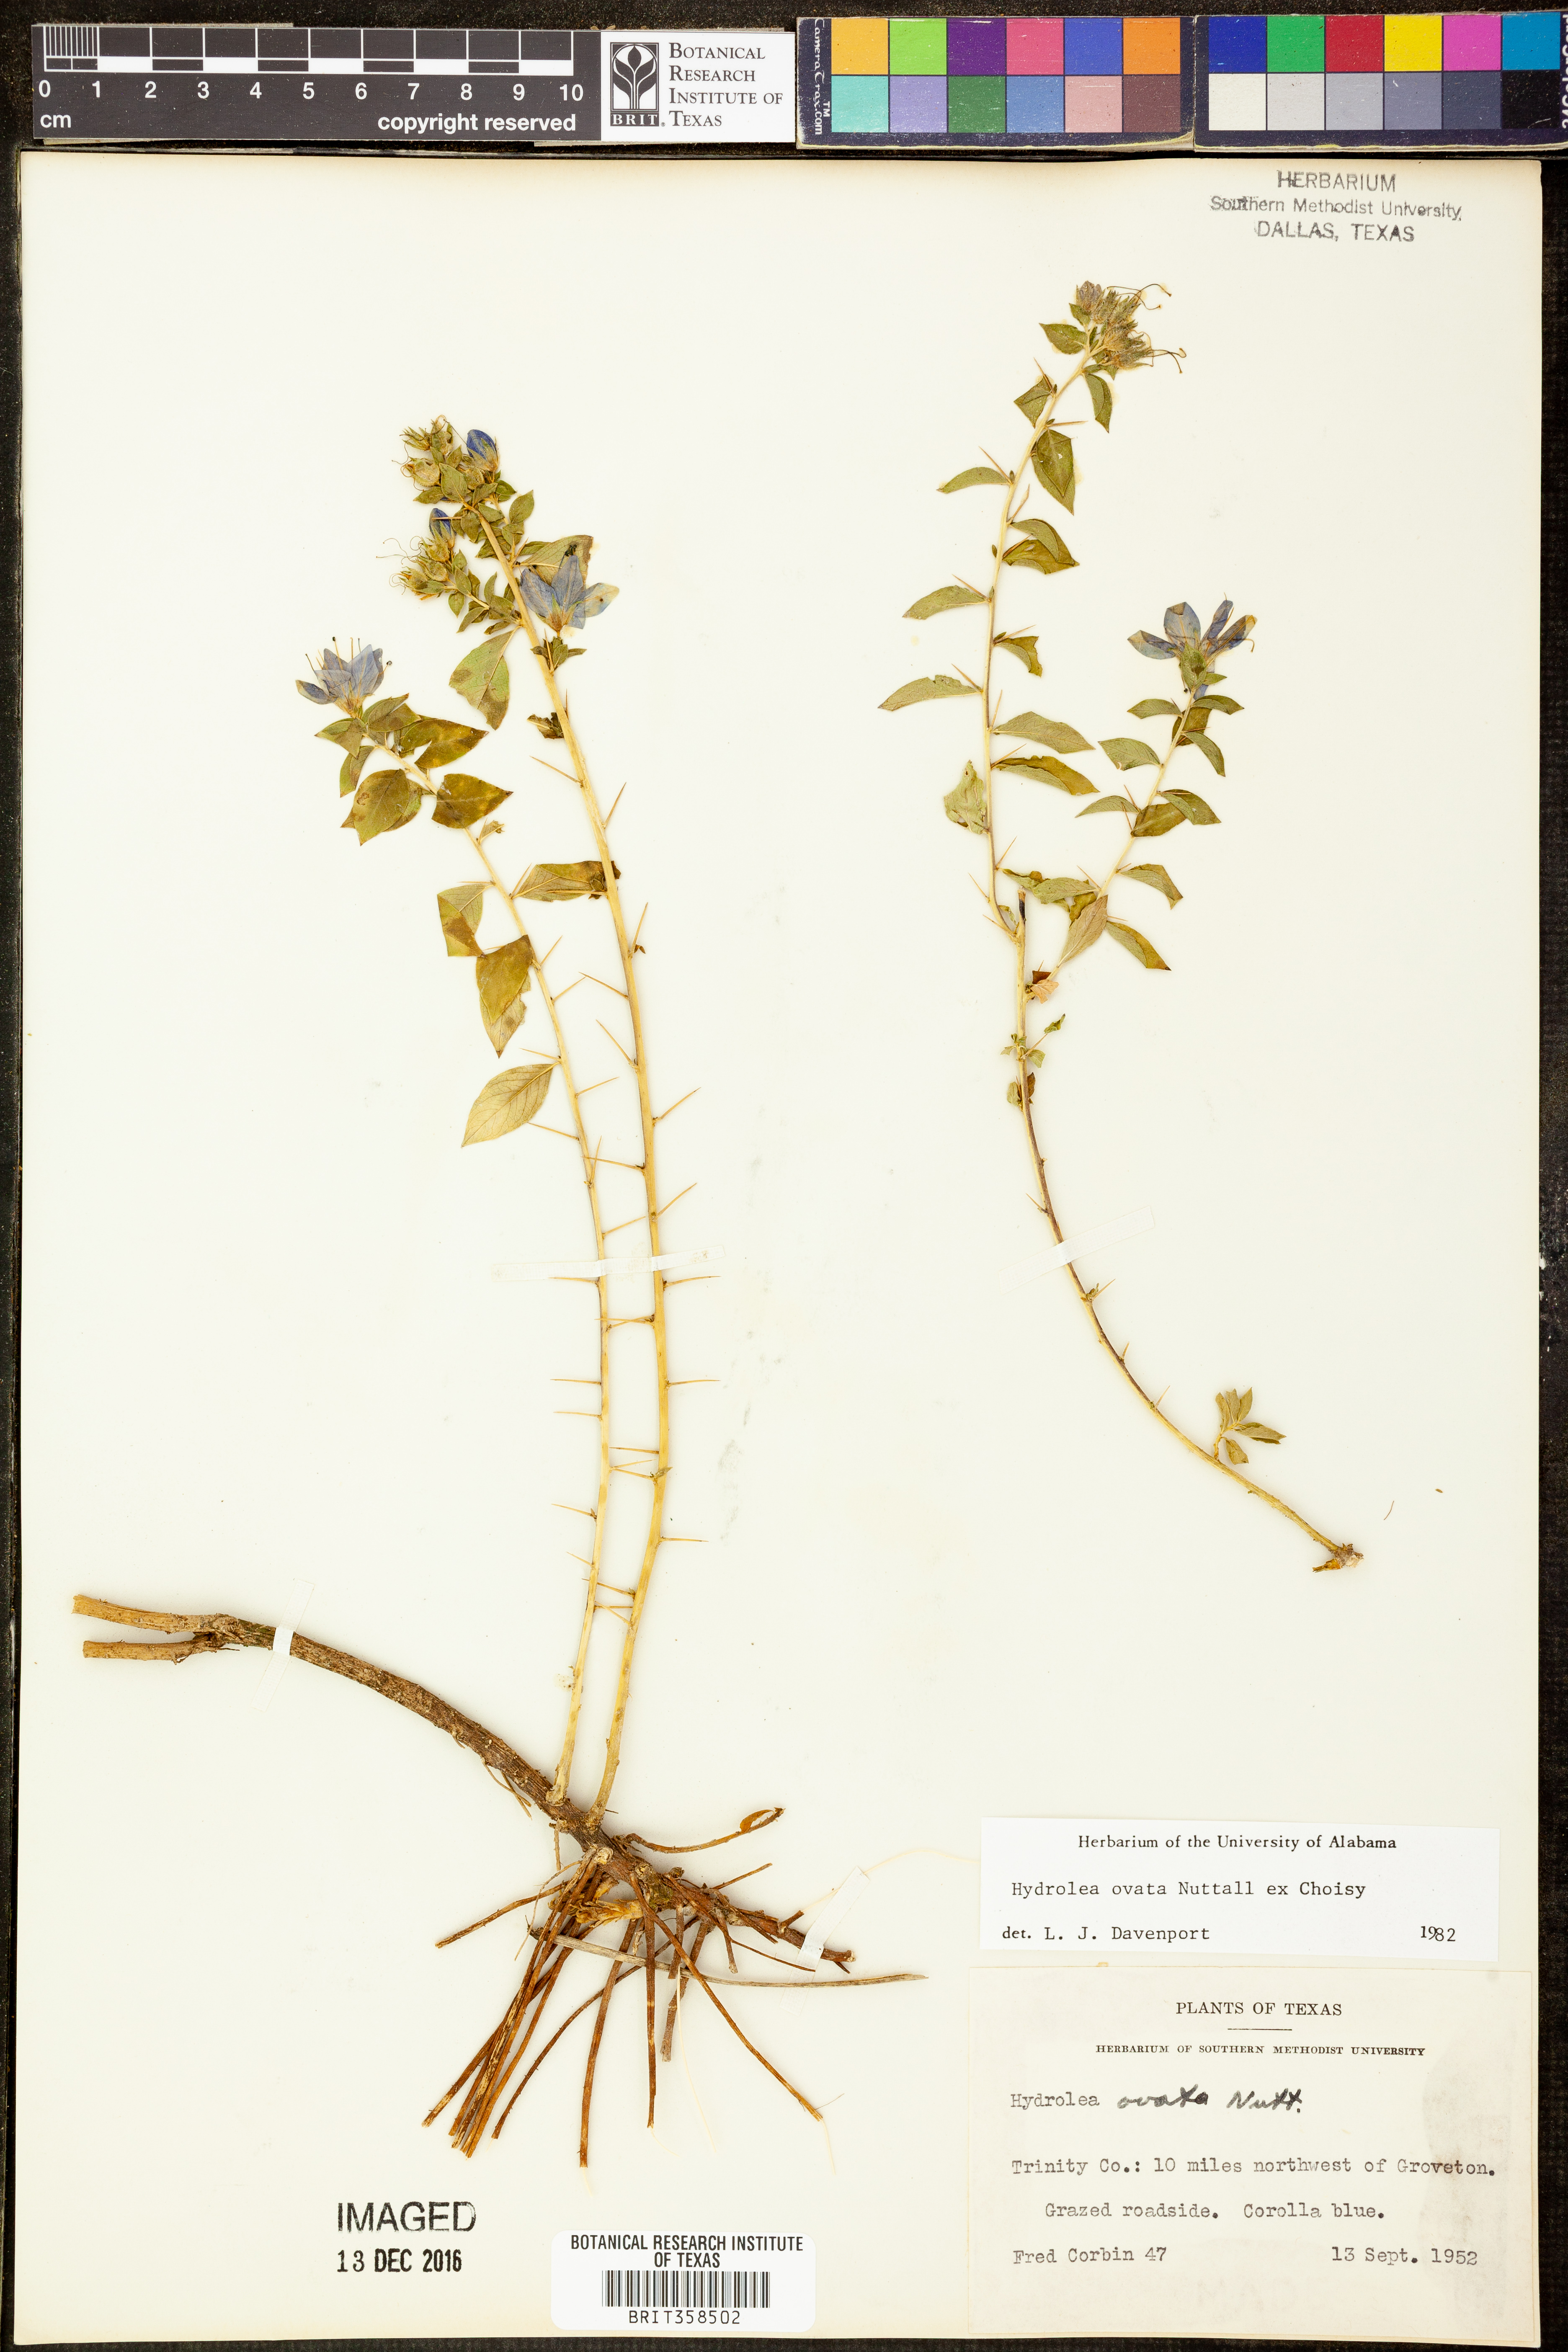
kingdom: Plantae
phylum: Tracheophyta
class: Magnoliopsida
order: Solanales
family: Hydroleaceae
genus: Hydrolea
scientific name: Hydrolea ovata
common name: Ovate false fiddleleaf
